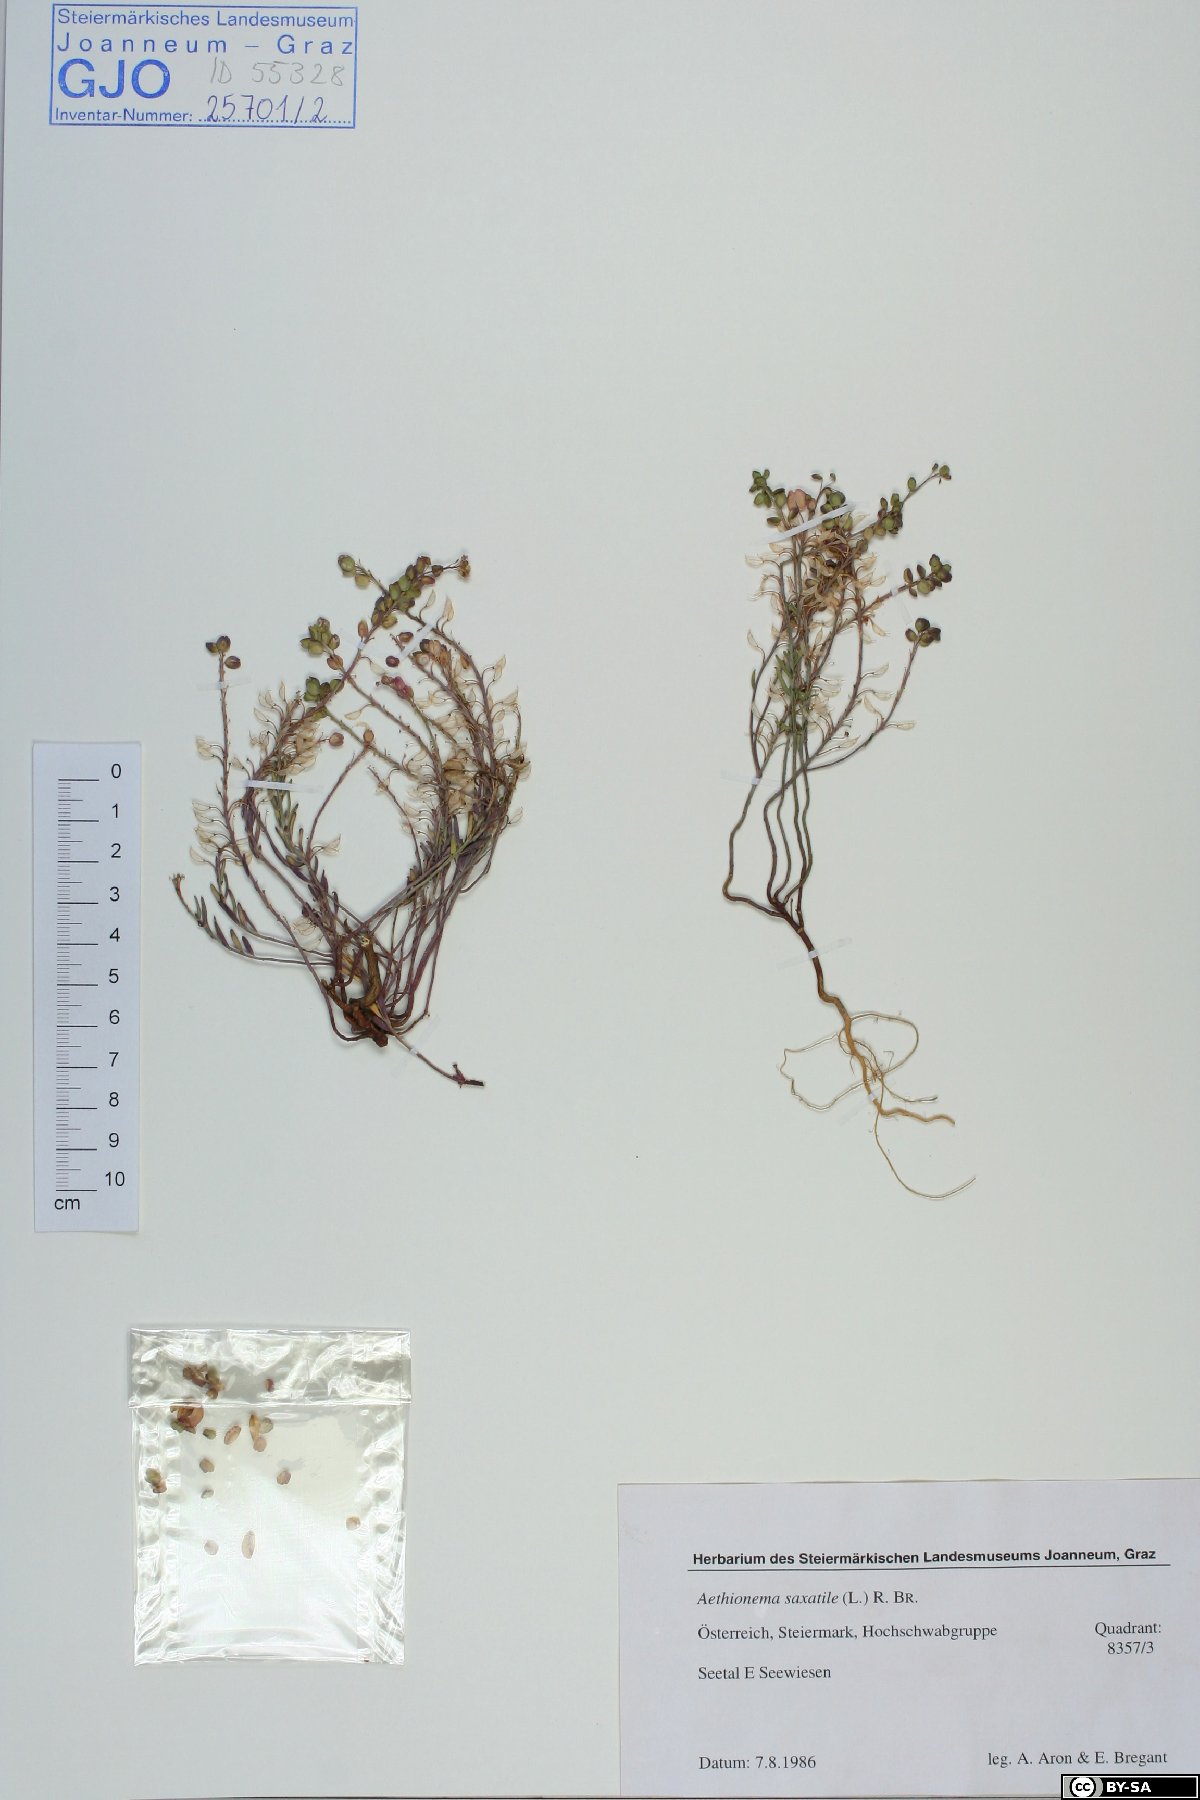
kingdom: Plantae
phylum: Tracheophyta
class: Magnoliopsida
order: Brassicales
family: Brassicaceae
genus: Aethionema
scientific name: Aethionema saxatile
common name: Burnt candytuft
